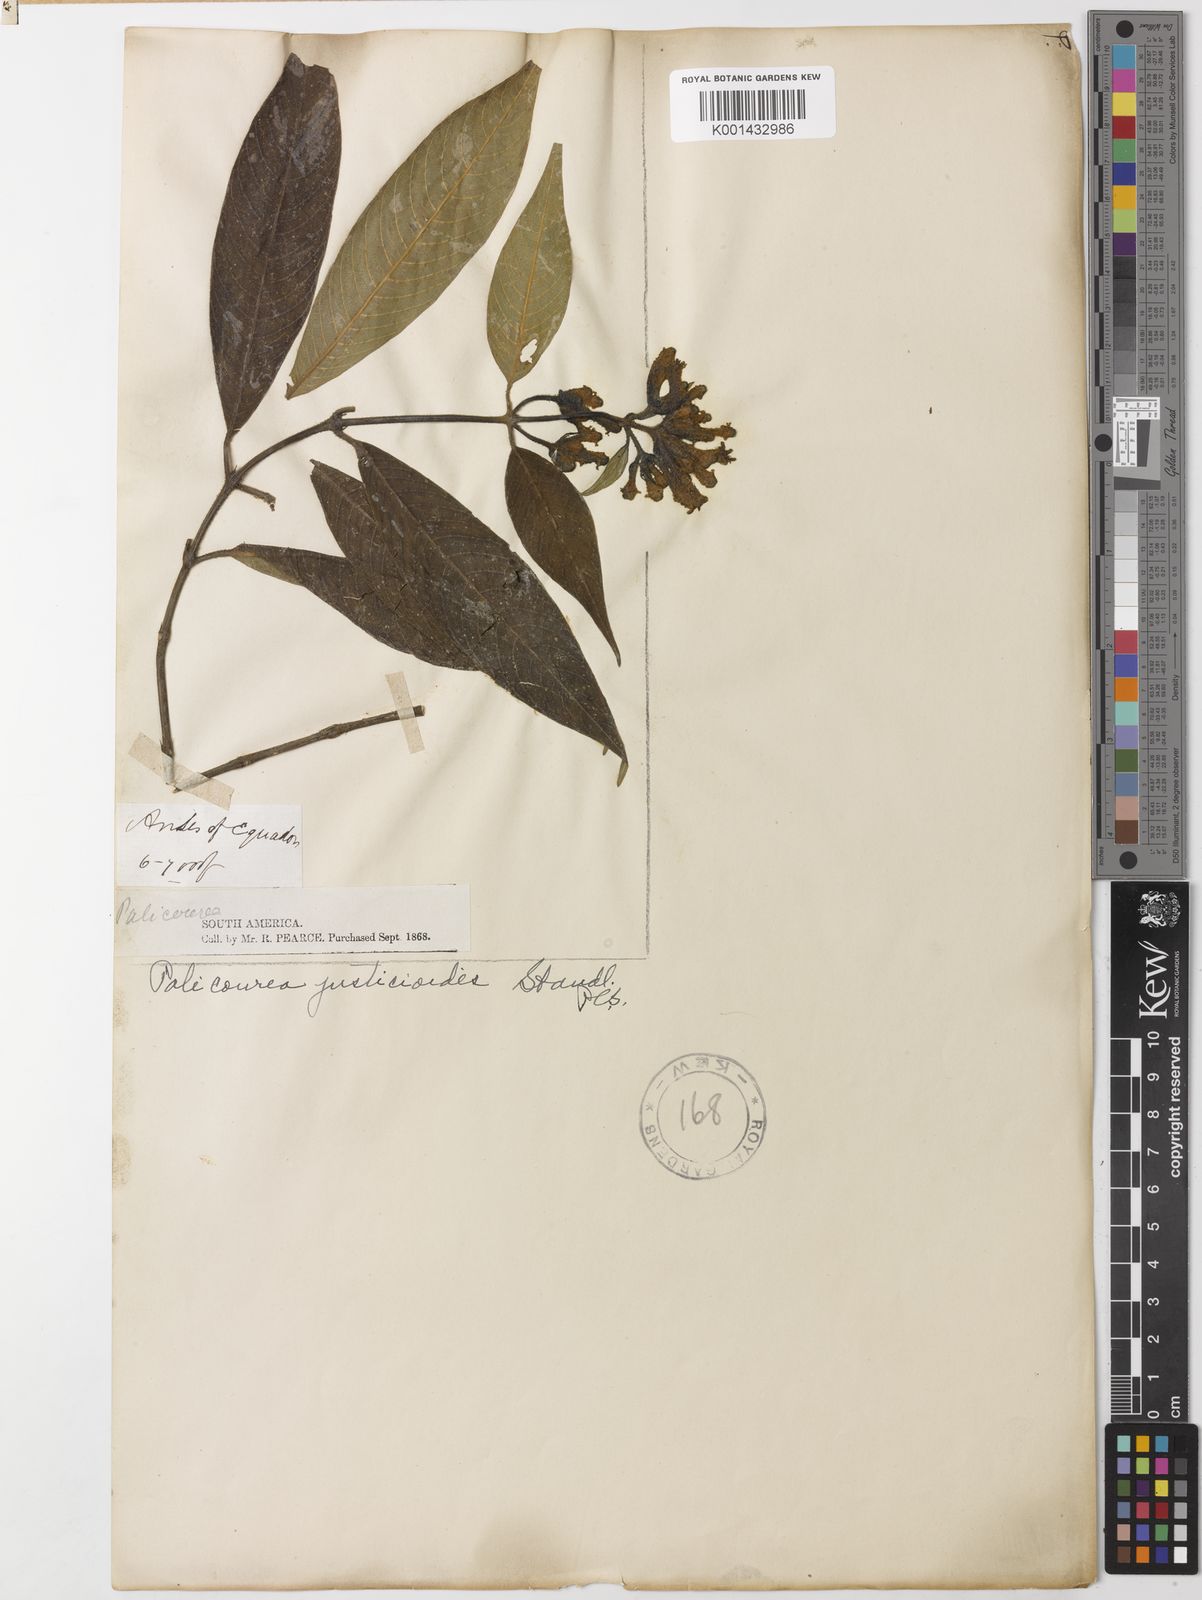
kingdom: Plantae
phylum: Tracheophyta
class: Magnoliopsida
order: Gentianales
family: Rubiaceae
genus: Palicourea
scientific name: Palicourea justicioides
